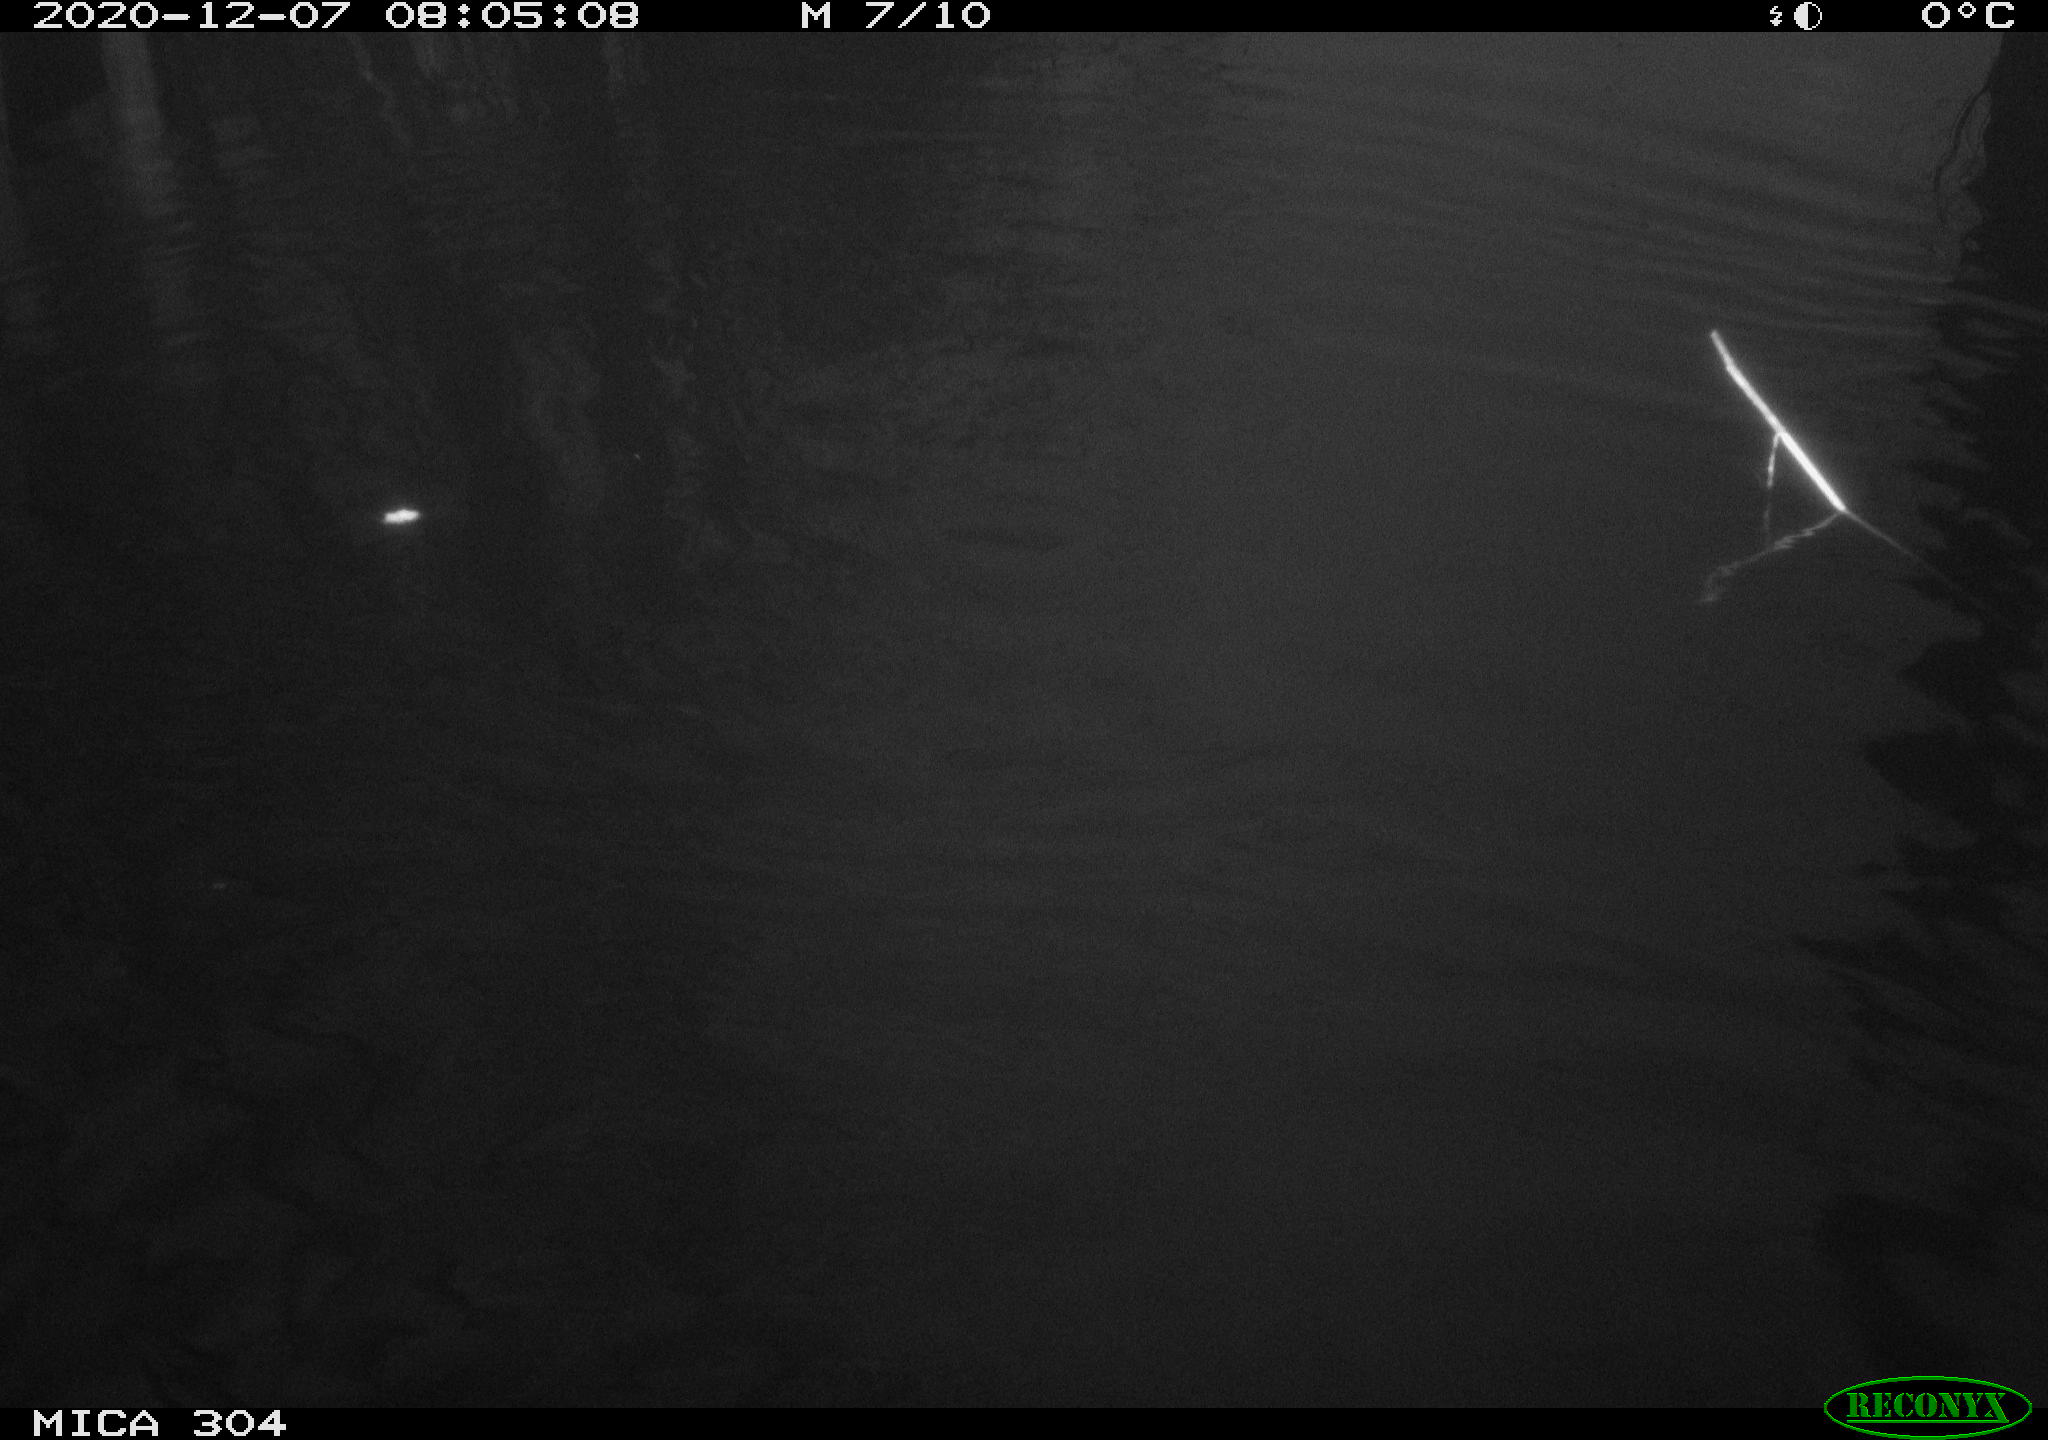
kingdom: Animalia
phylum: Chordata
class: Aves
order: Gruiformes
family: Rallidae
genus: Gallinula
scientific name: Gallinula chloropus
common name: Common moorhen
